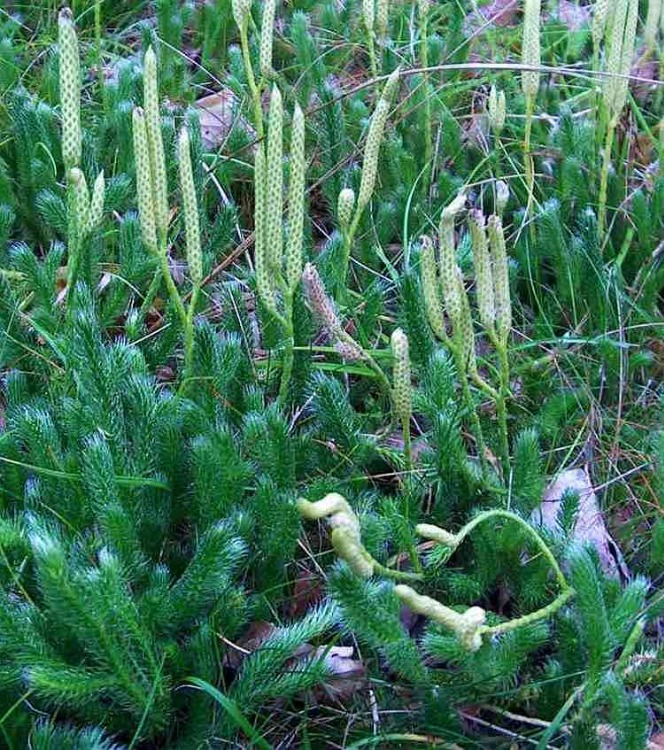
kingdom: Plantae
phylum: Tracheophyta
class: Lycopodiopsida
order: Lycopodiales
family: Lycopodiaceae
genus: Lycopodium
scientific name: Lycopodium clavatum
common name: Almindelig ulvefod
